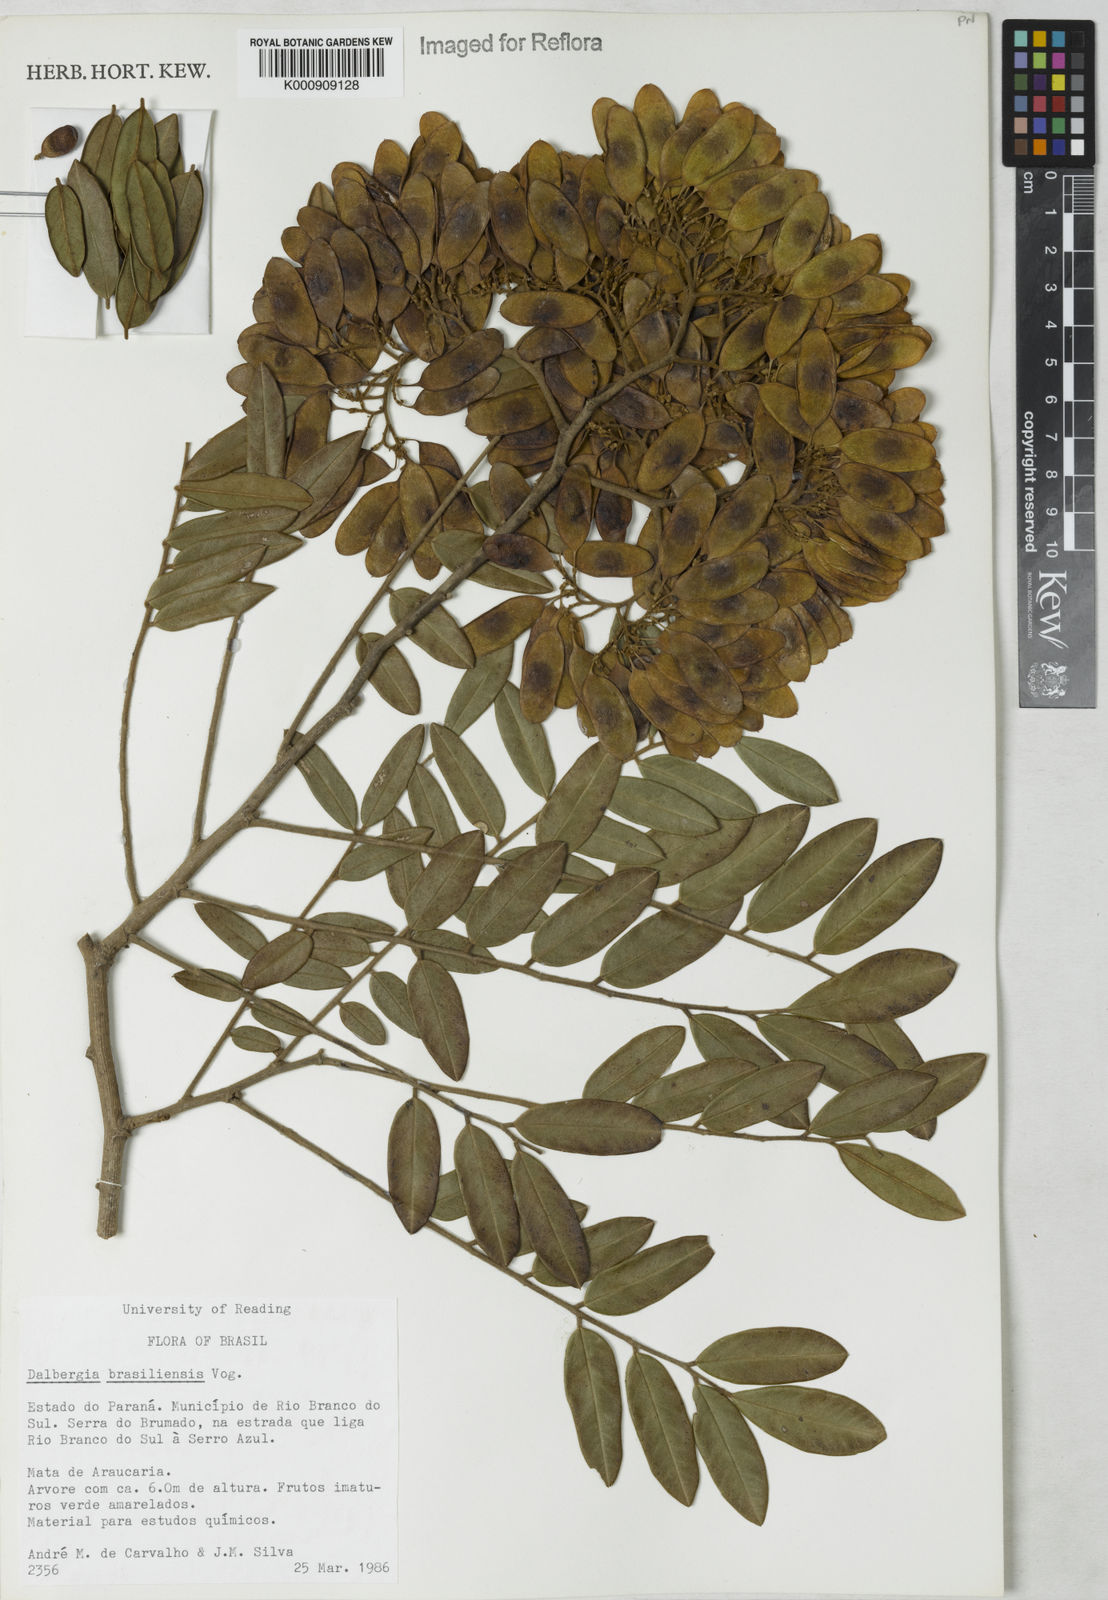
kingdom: Plantae
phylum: Tracheophyta
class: Magnoliopsida
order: Fabales
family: Fabaceae
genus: Dalbergia
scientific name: Dalbergia brasiliensis
